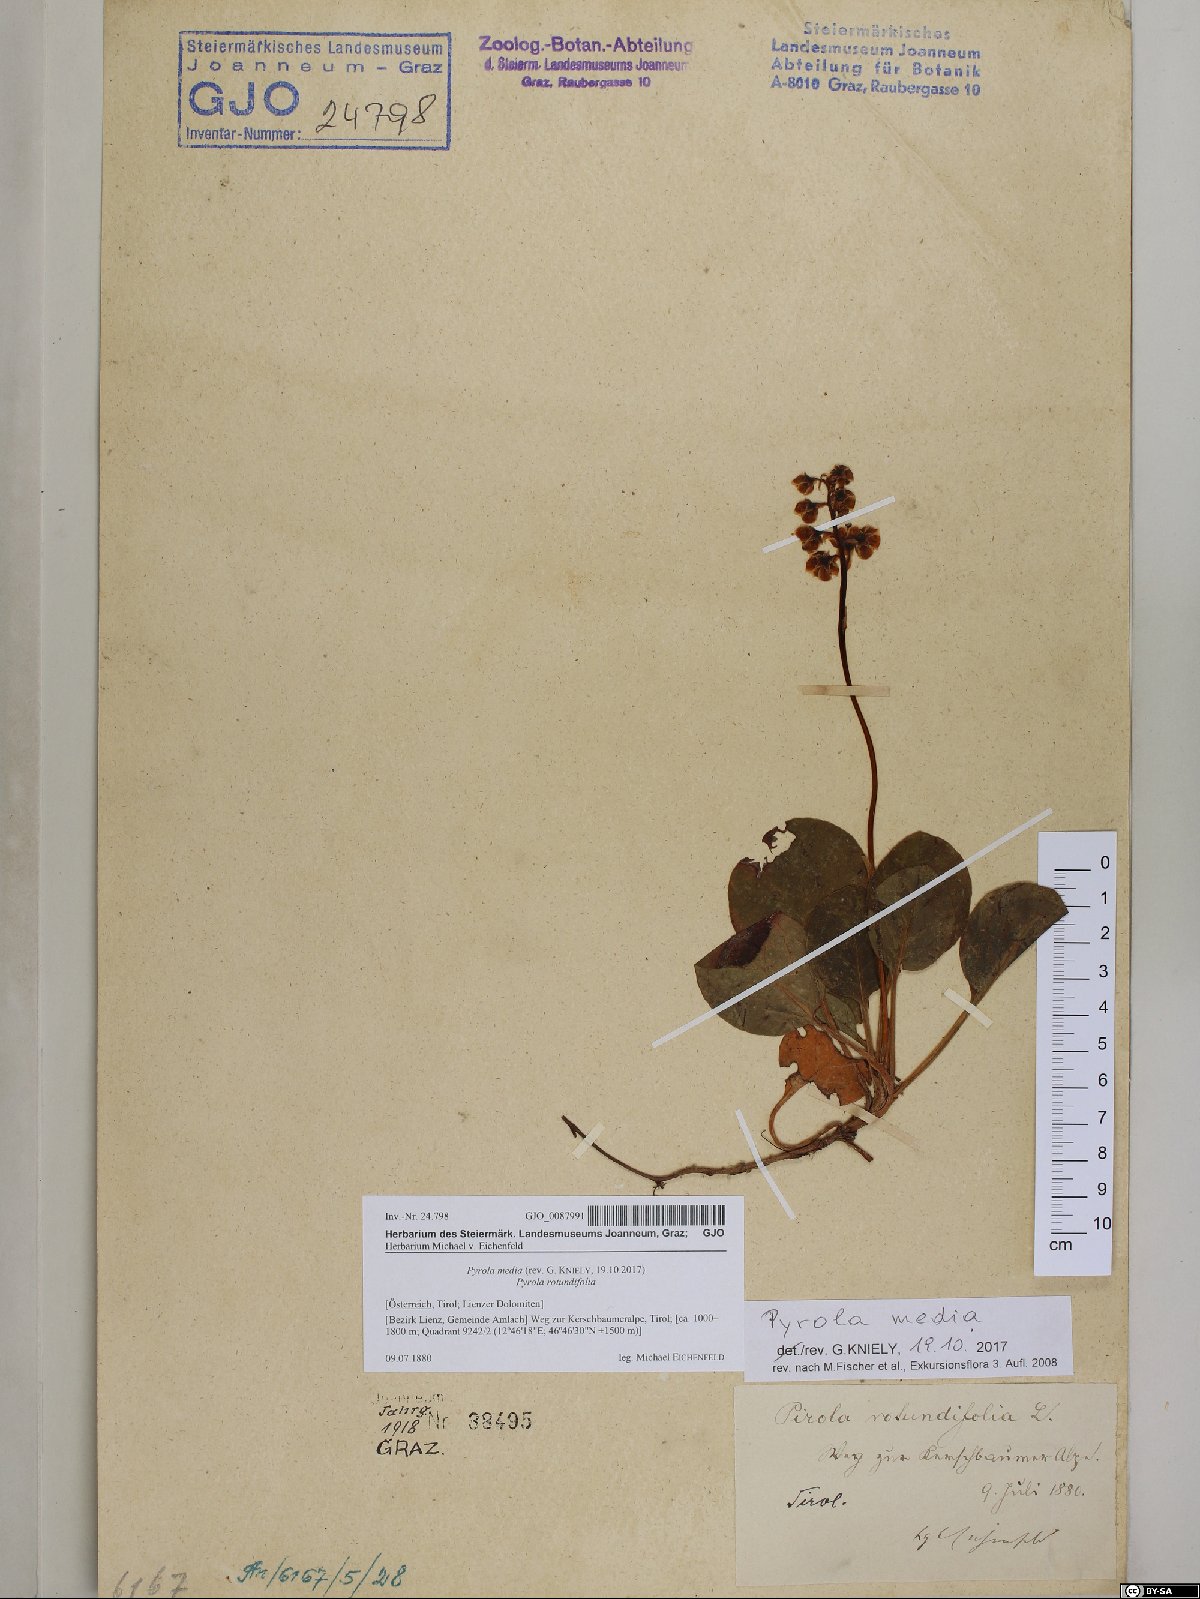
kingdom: Plantae
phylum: Tracheophyta
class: Magnoliopsida
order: Ericales
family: Ericaceae
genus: Pyrola
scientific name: Pyrola media
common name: Intermediate wintergreen
